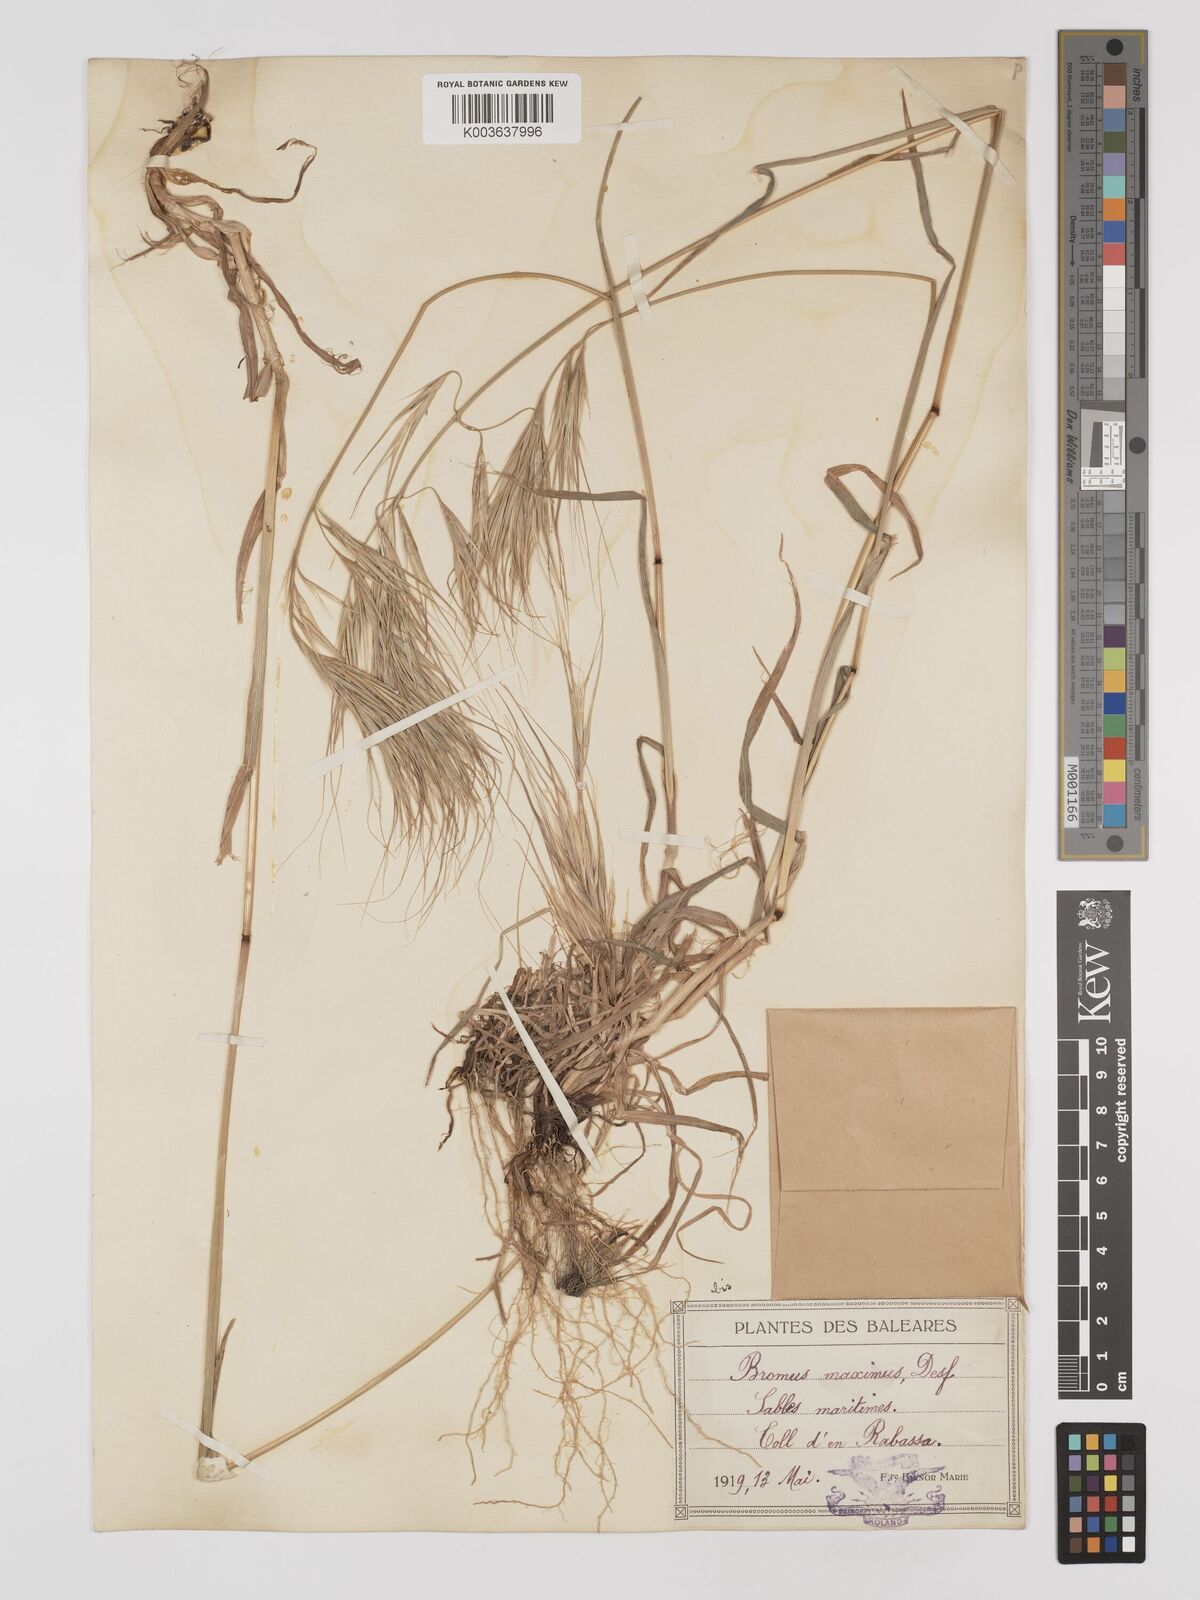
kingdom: Plantae
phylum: Tracheophyta
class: Liliopsida
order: Poales
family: Poaceae
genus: Bromus
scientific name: Bromus
